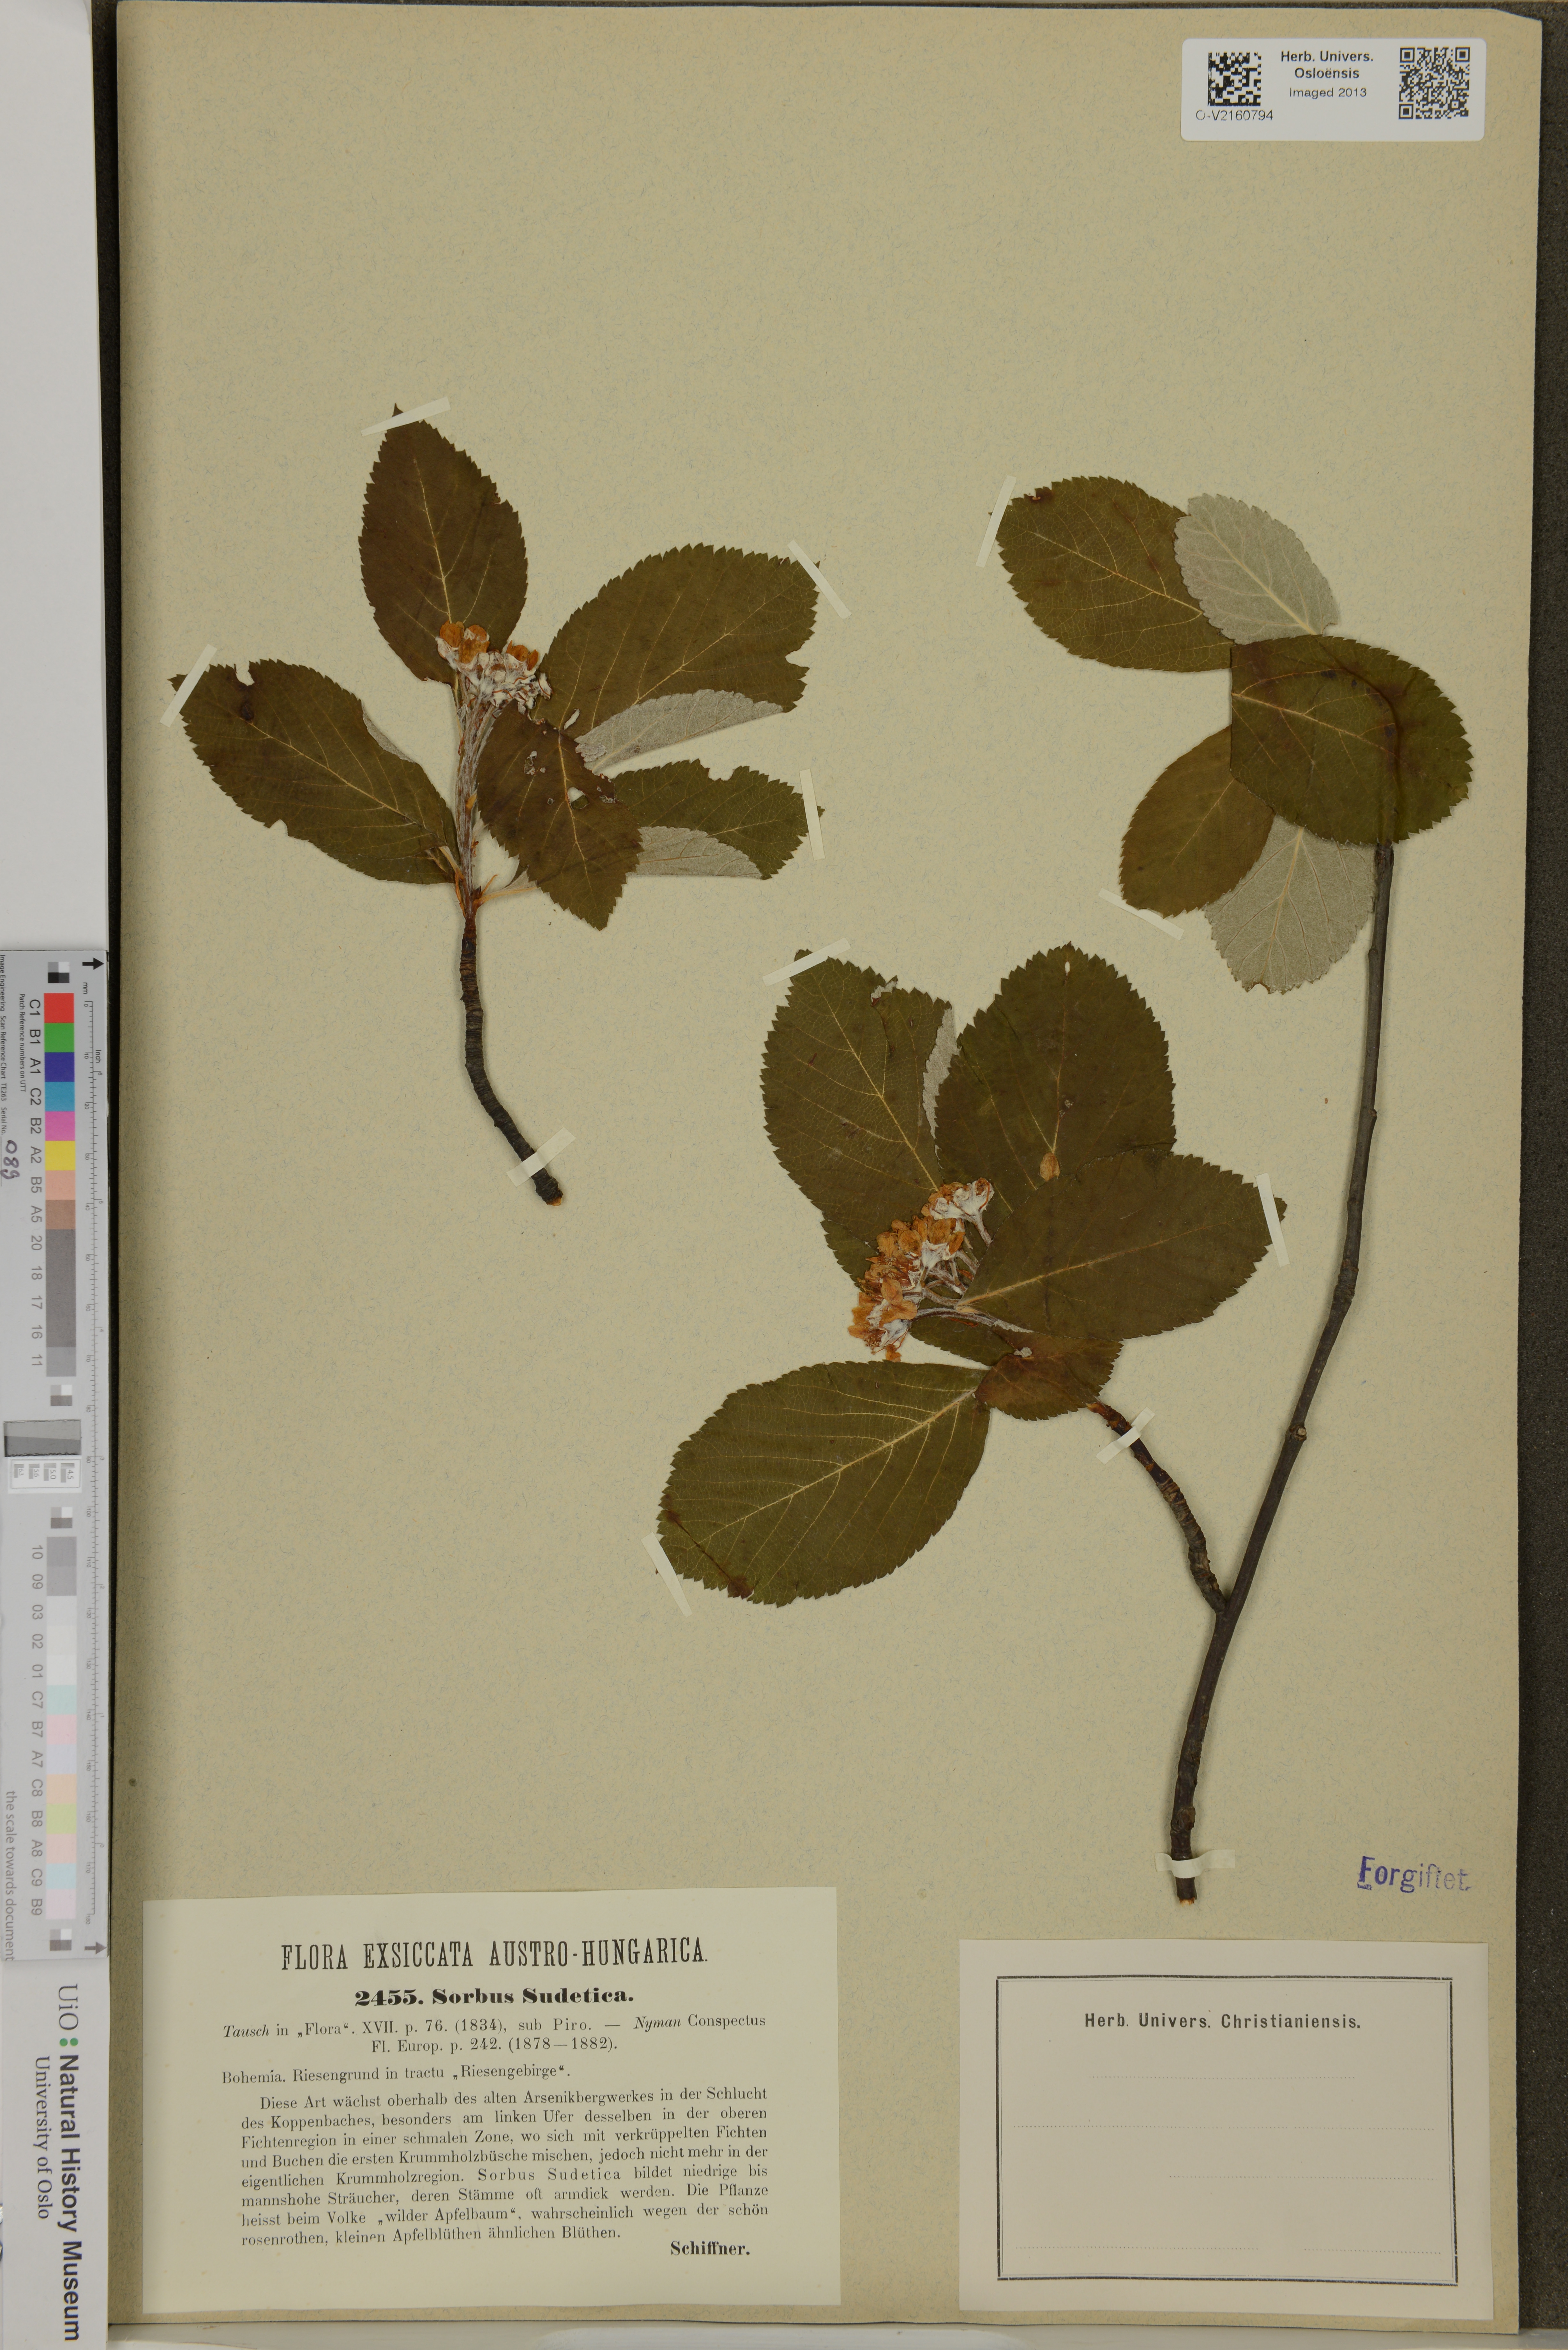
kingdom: Plantae
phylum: Tracheophyta
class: Magnoliopsida
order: Rosales
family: Rosaceae
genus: Majovskya
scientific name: Majovskya sudetica
